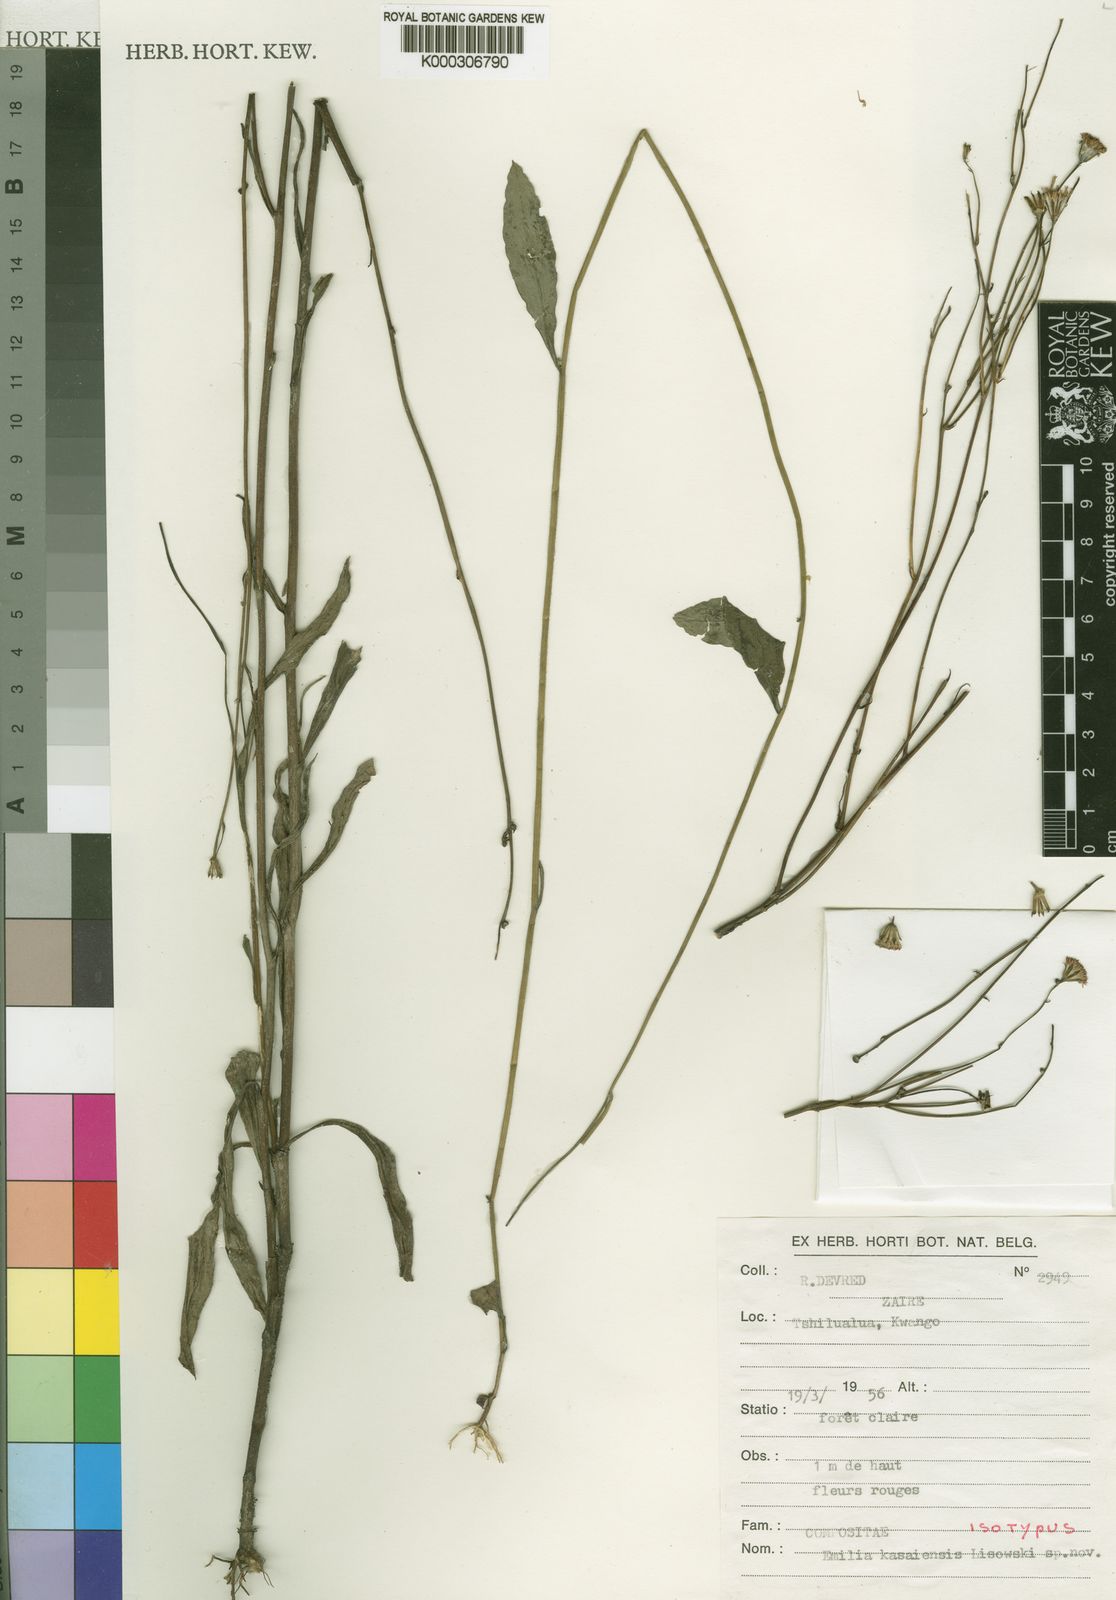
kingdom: Plantae
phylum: Tracheophyta
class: Magnoliopsida
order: Asterales
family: Asteraceae
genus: Emilia
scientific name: Emilia kasaiensis
